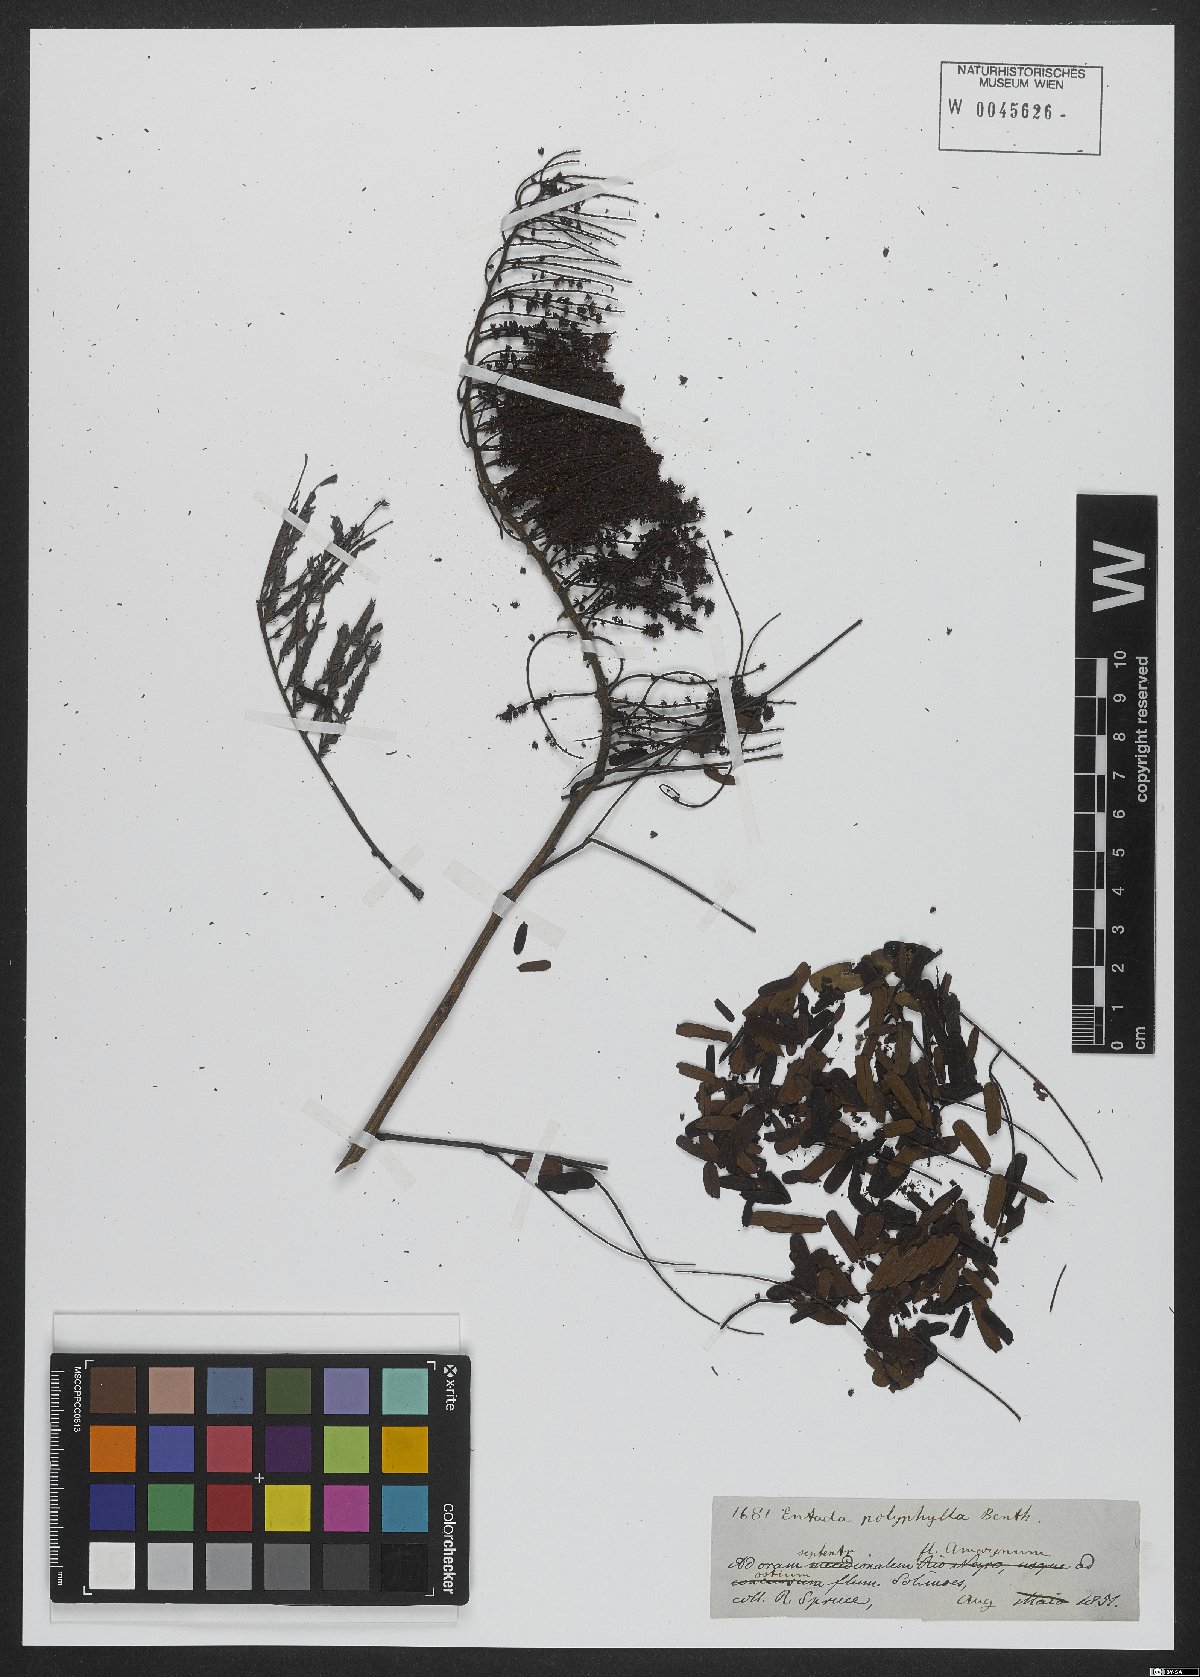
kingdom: Plantae
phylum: Tracheophyta
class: Magnoliopsida
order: Fabales
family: Fabaceae
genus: Entada
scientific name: Entada polyphylla
